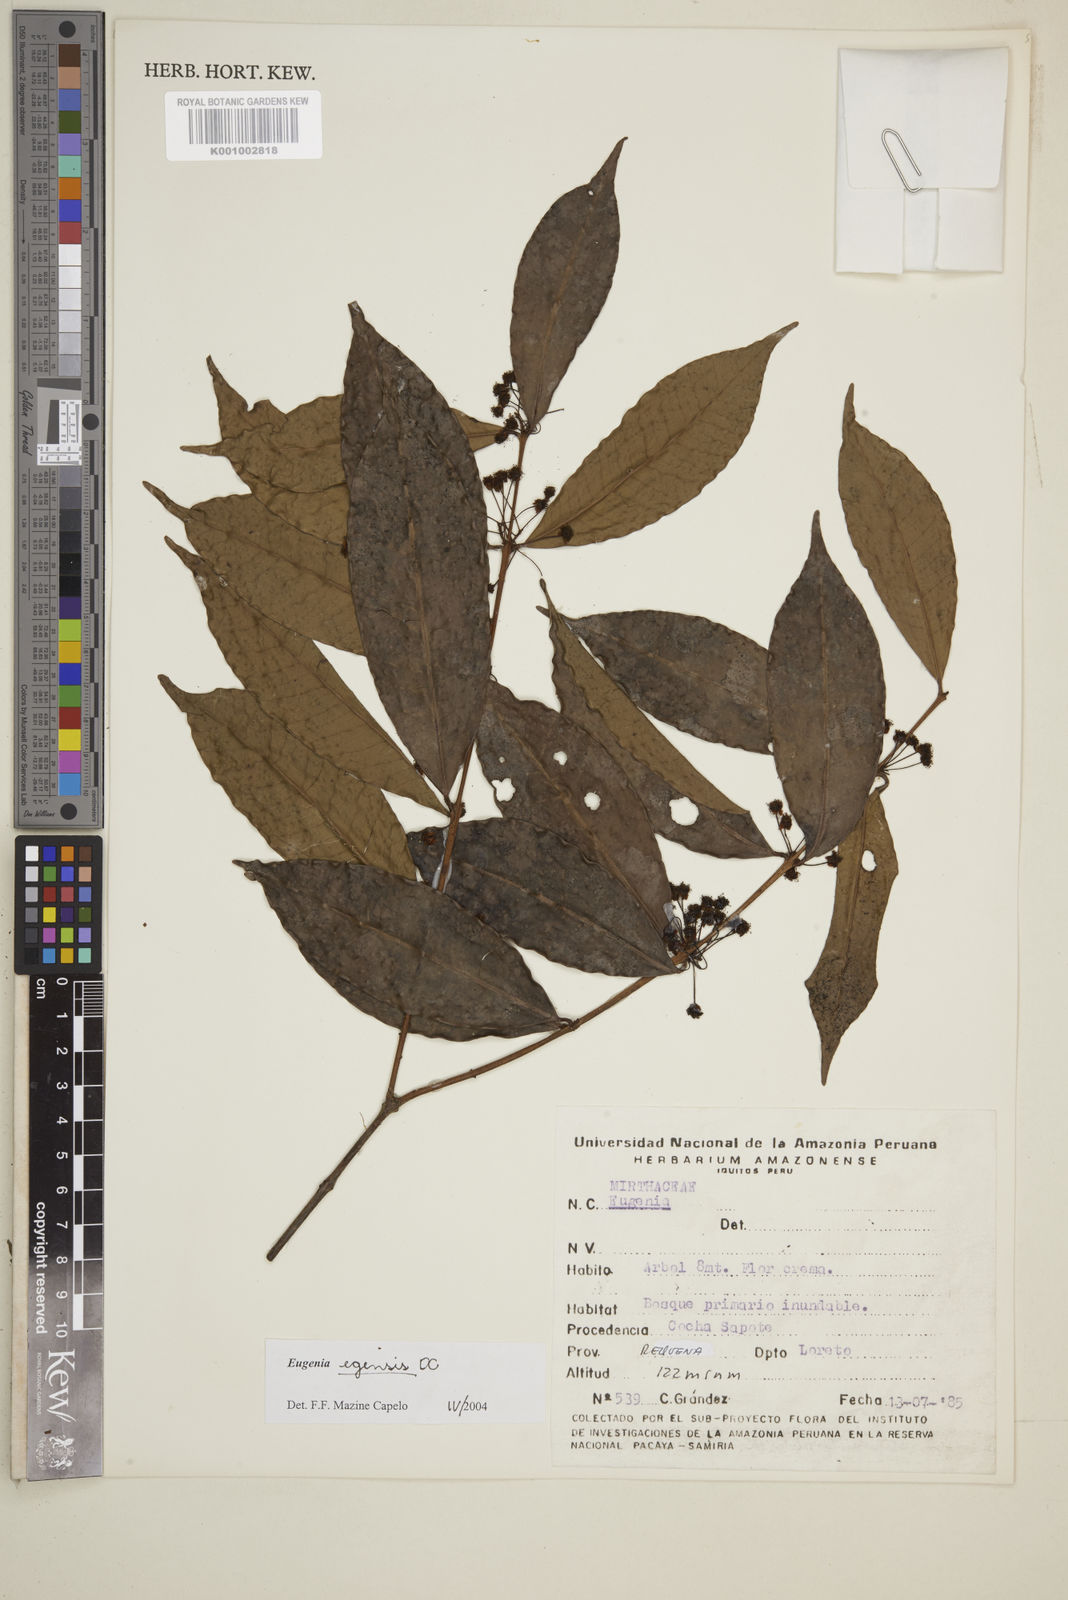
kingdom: Plantae
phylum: Tracheophyta
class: Magnoliopsida
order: Myrtales
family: Myrtaceae
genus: Eugenia
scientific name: Eugenia egensis
